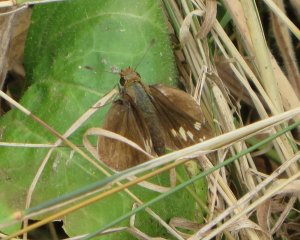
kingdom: Animalia
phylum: Arthropoda
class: Insecta
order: Lepidoptera
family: Hesperiidae
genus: Lon
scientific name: Lon zabulon
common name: Zabulon Skipper
